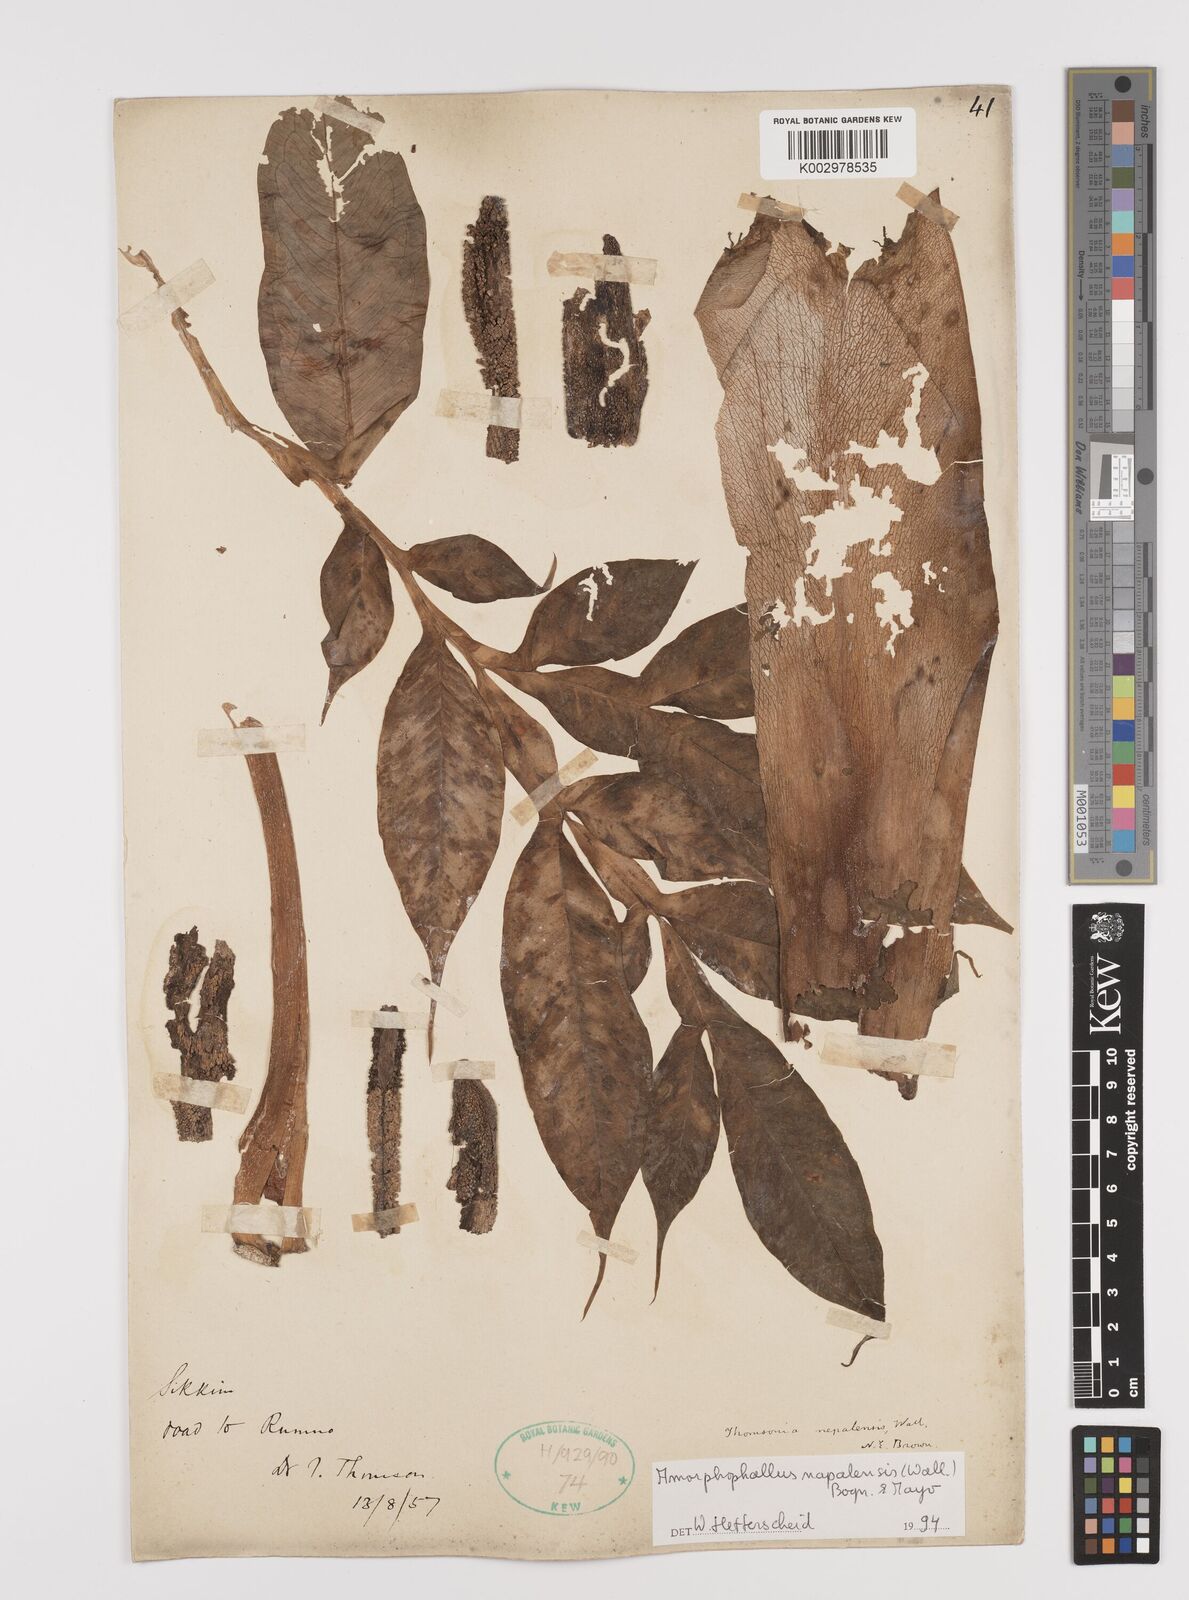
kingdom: Plantae
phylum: Tracheophyta
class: Liliopsida
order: Alismatales
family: Araceae
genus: Amorphophallus
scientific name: Amorphophallus napalensis
